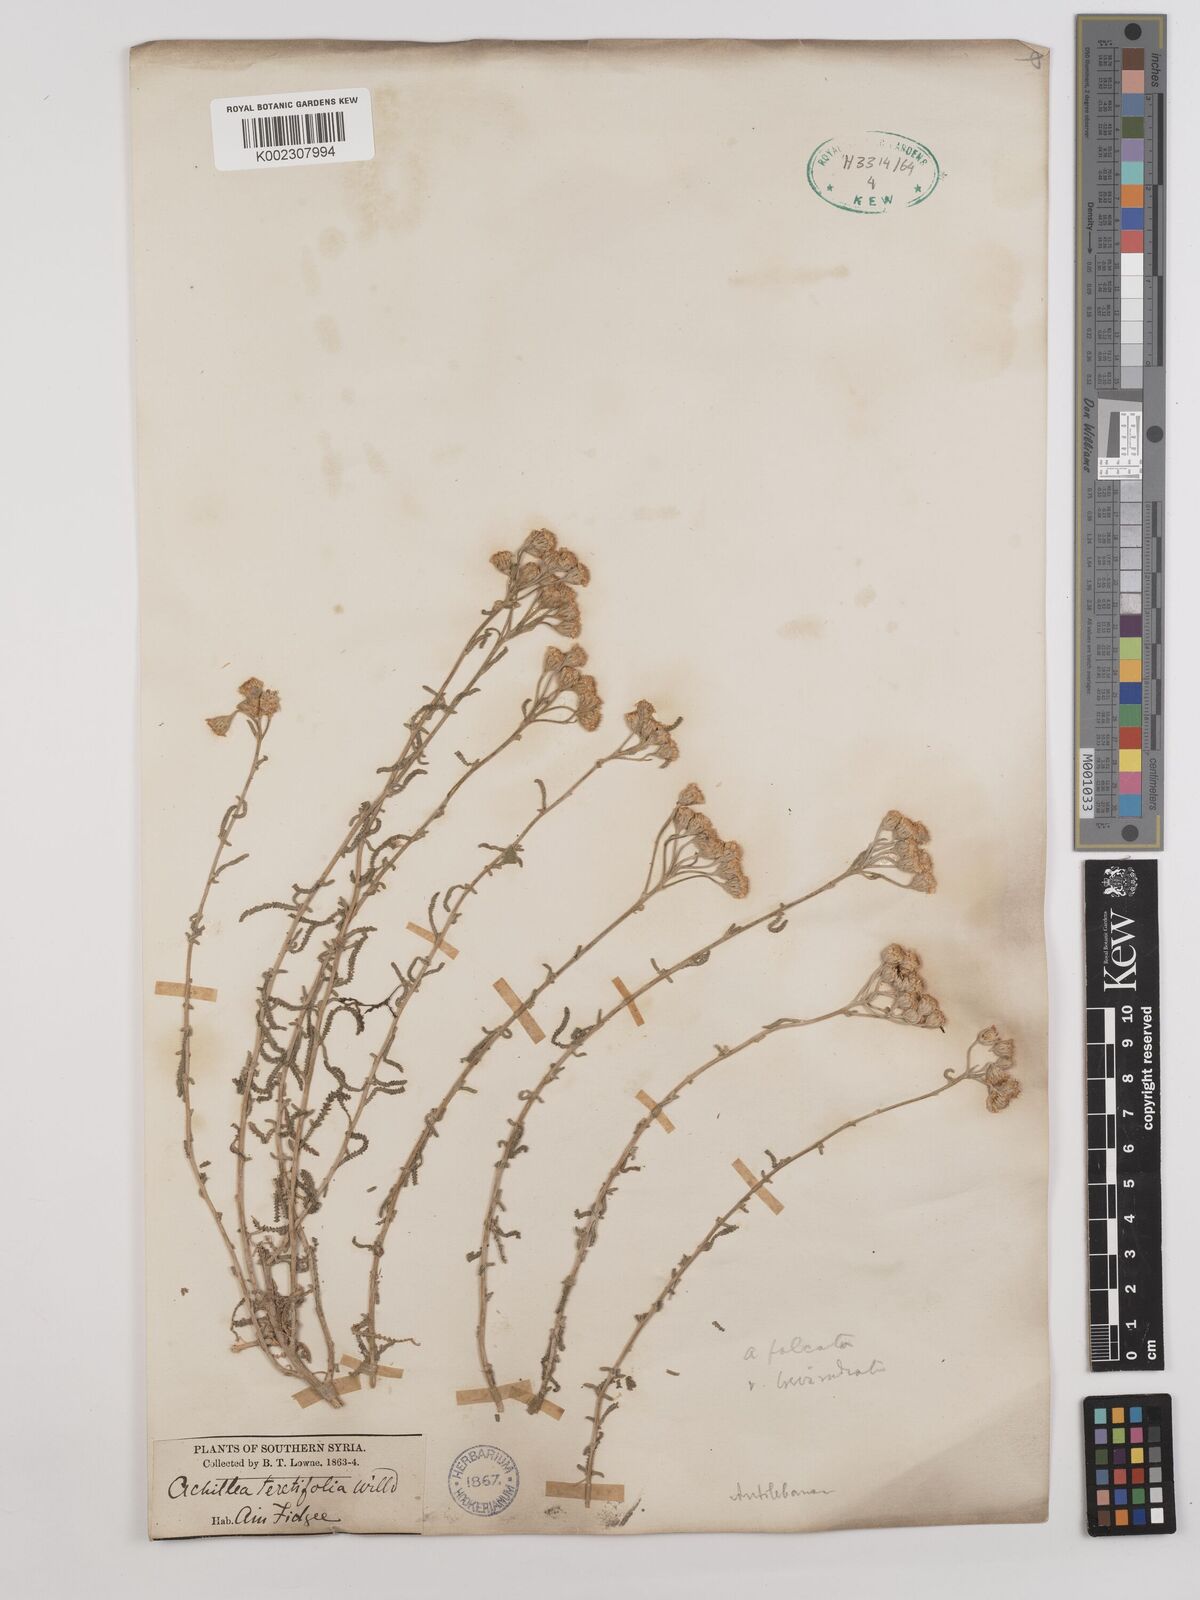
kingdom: Plantae
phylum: Tracheophyta
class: Magnoliopsida
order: Asterales
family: Asteraceae
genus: Achillea
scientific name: Achillea falcata
